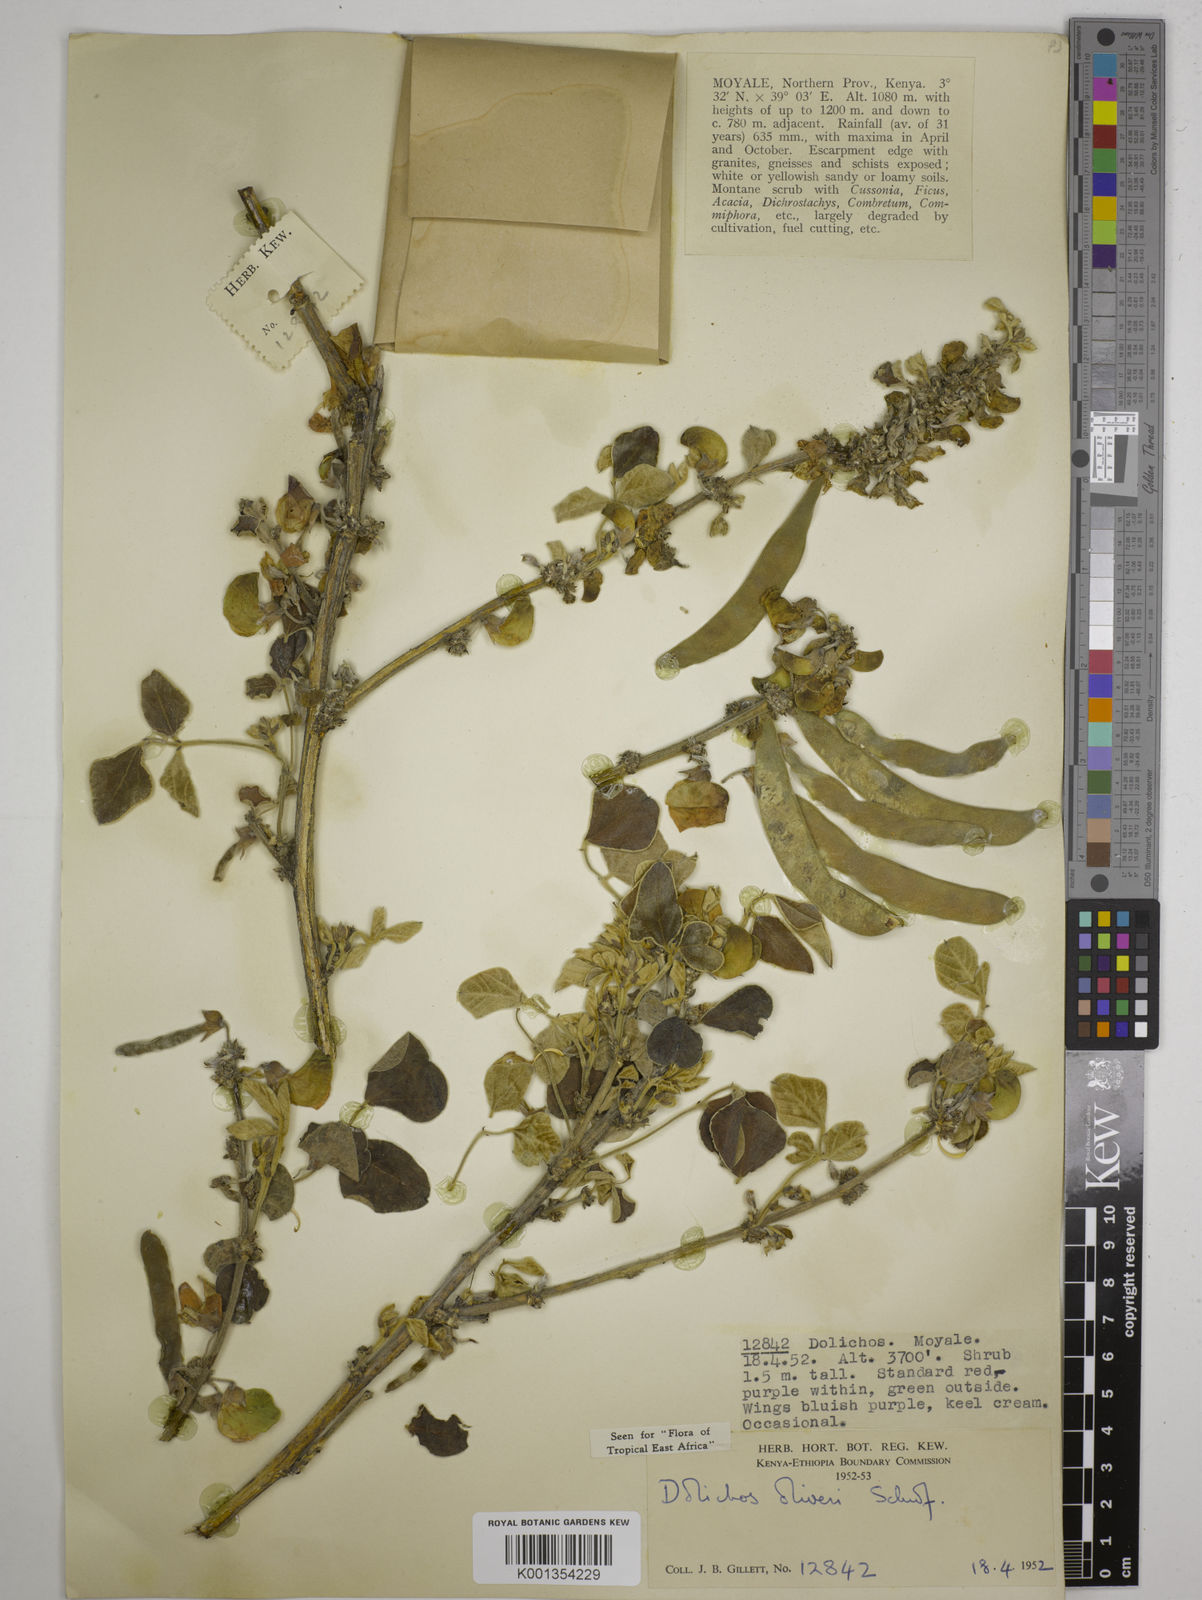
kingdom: Plantae
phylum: Tracheophyta
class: Magnoliopsida
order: Fabales
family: Fabaceae
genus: Dolichos
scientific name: Dolichos oliveri
